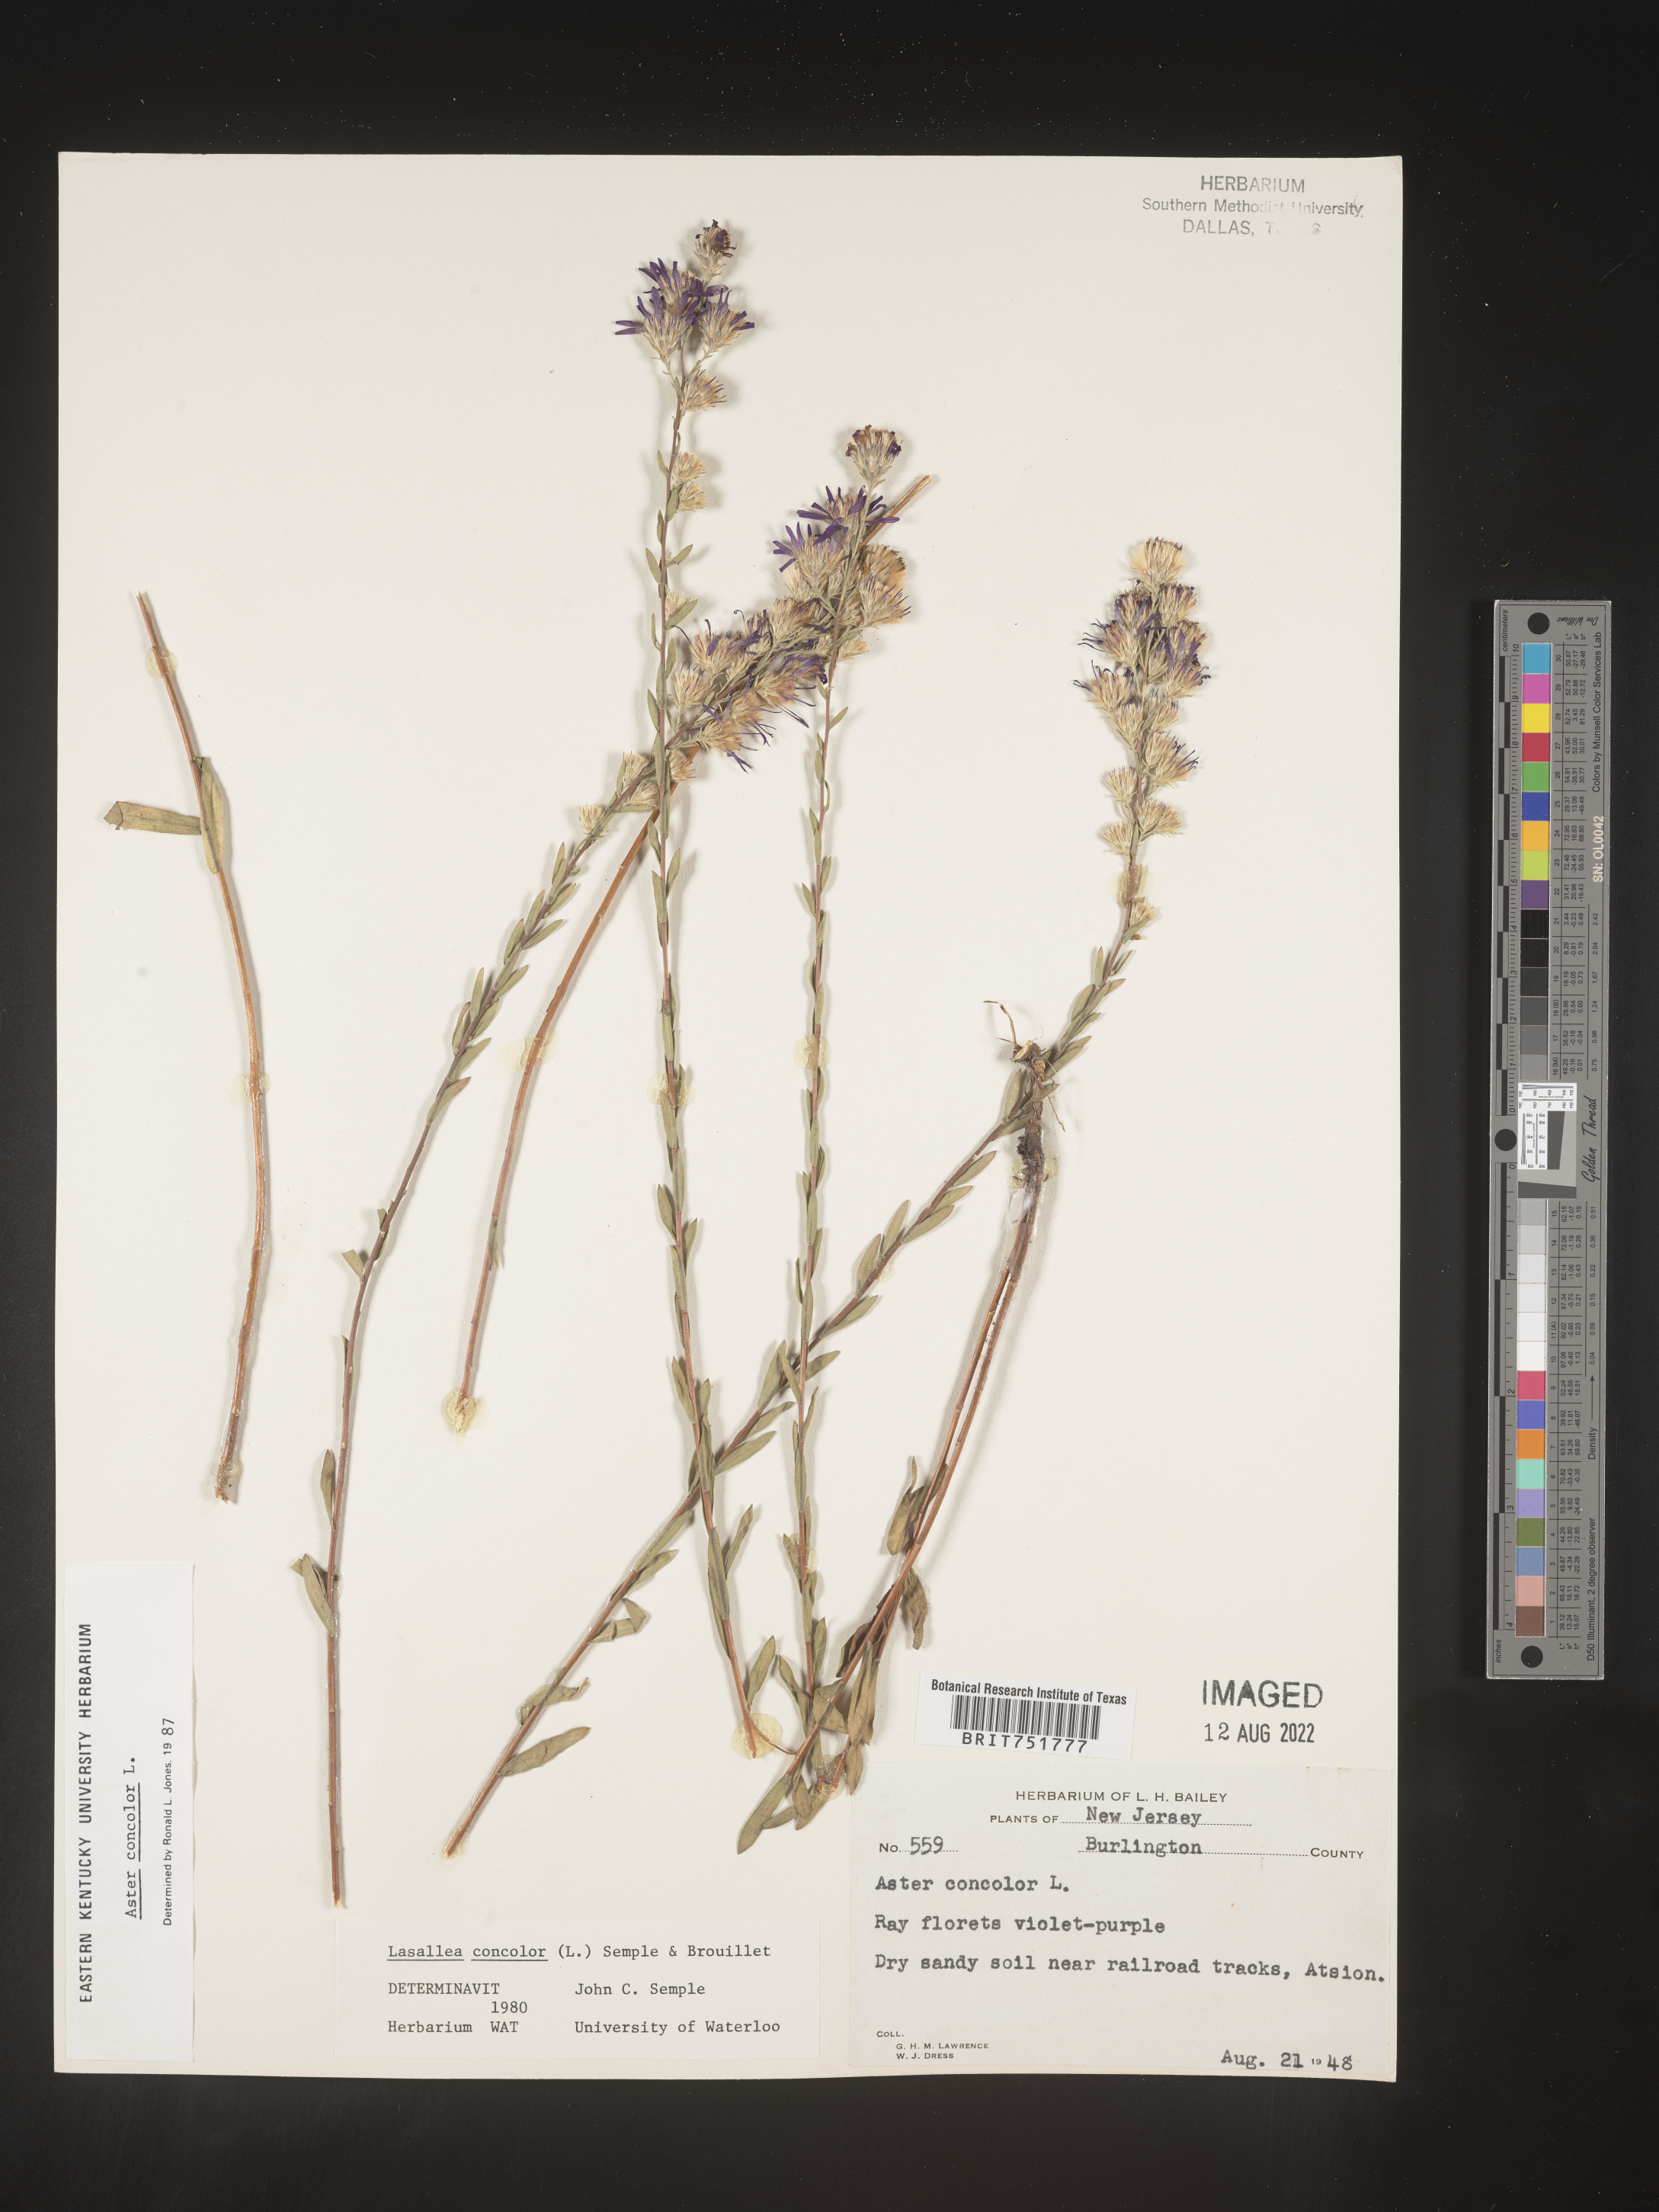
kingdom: Plantae
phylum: Tracheophyta
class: Magnoliopsida
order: Asterales
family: Asteraceae
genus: Symphyotrichum
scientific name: Symphyotrichum concolor
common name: Eastern silver aster
